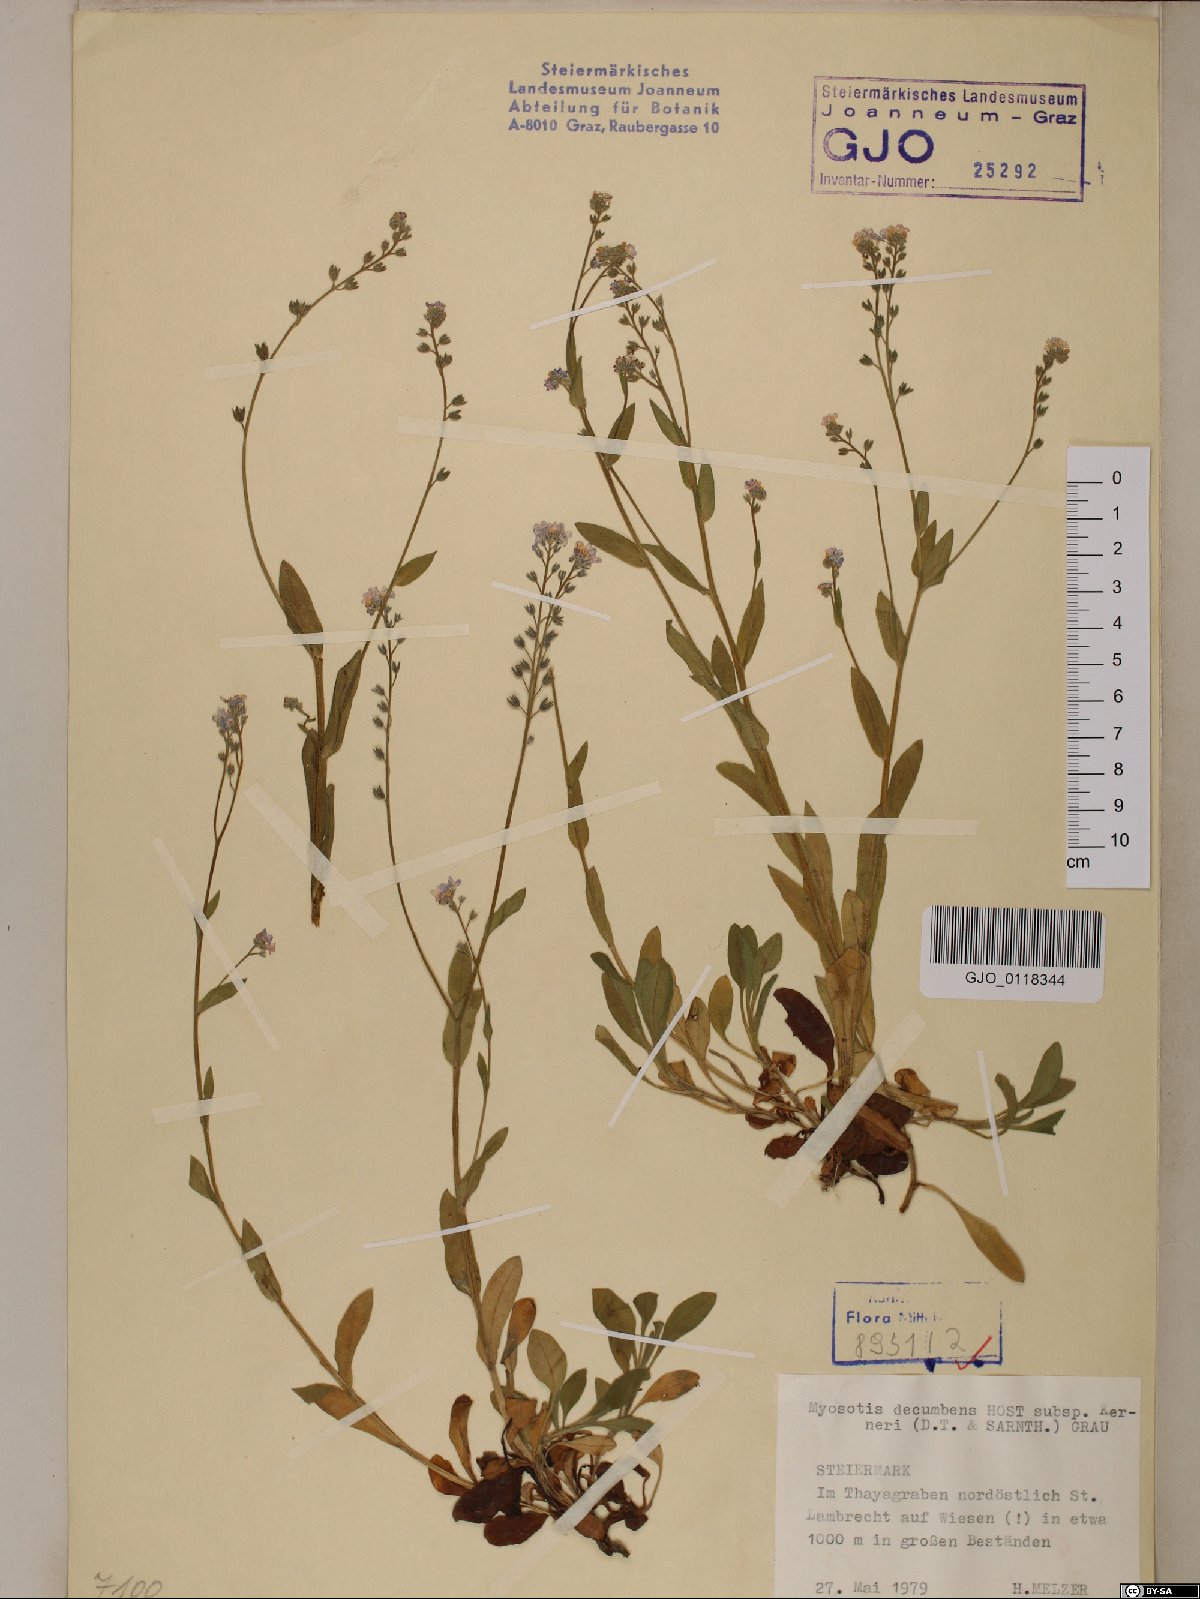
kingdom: Plantae
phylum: Tracheophyta
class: Magnoliopsida
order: Boraginales
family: Boraginaceae
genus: Myosotis
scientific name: Myosotis decumbens
